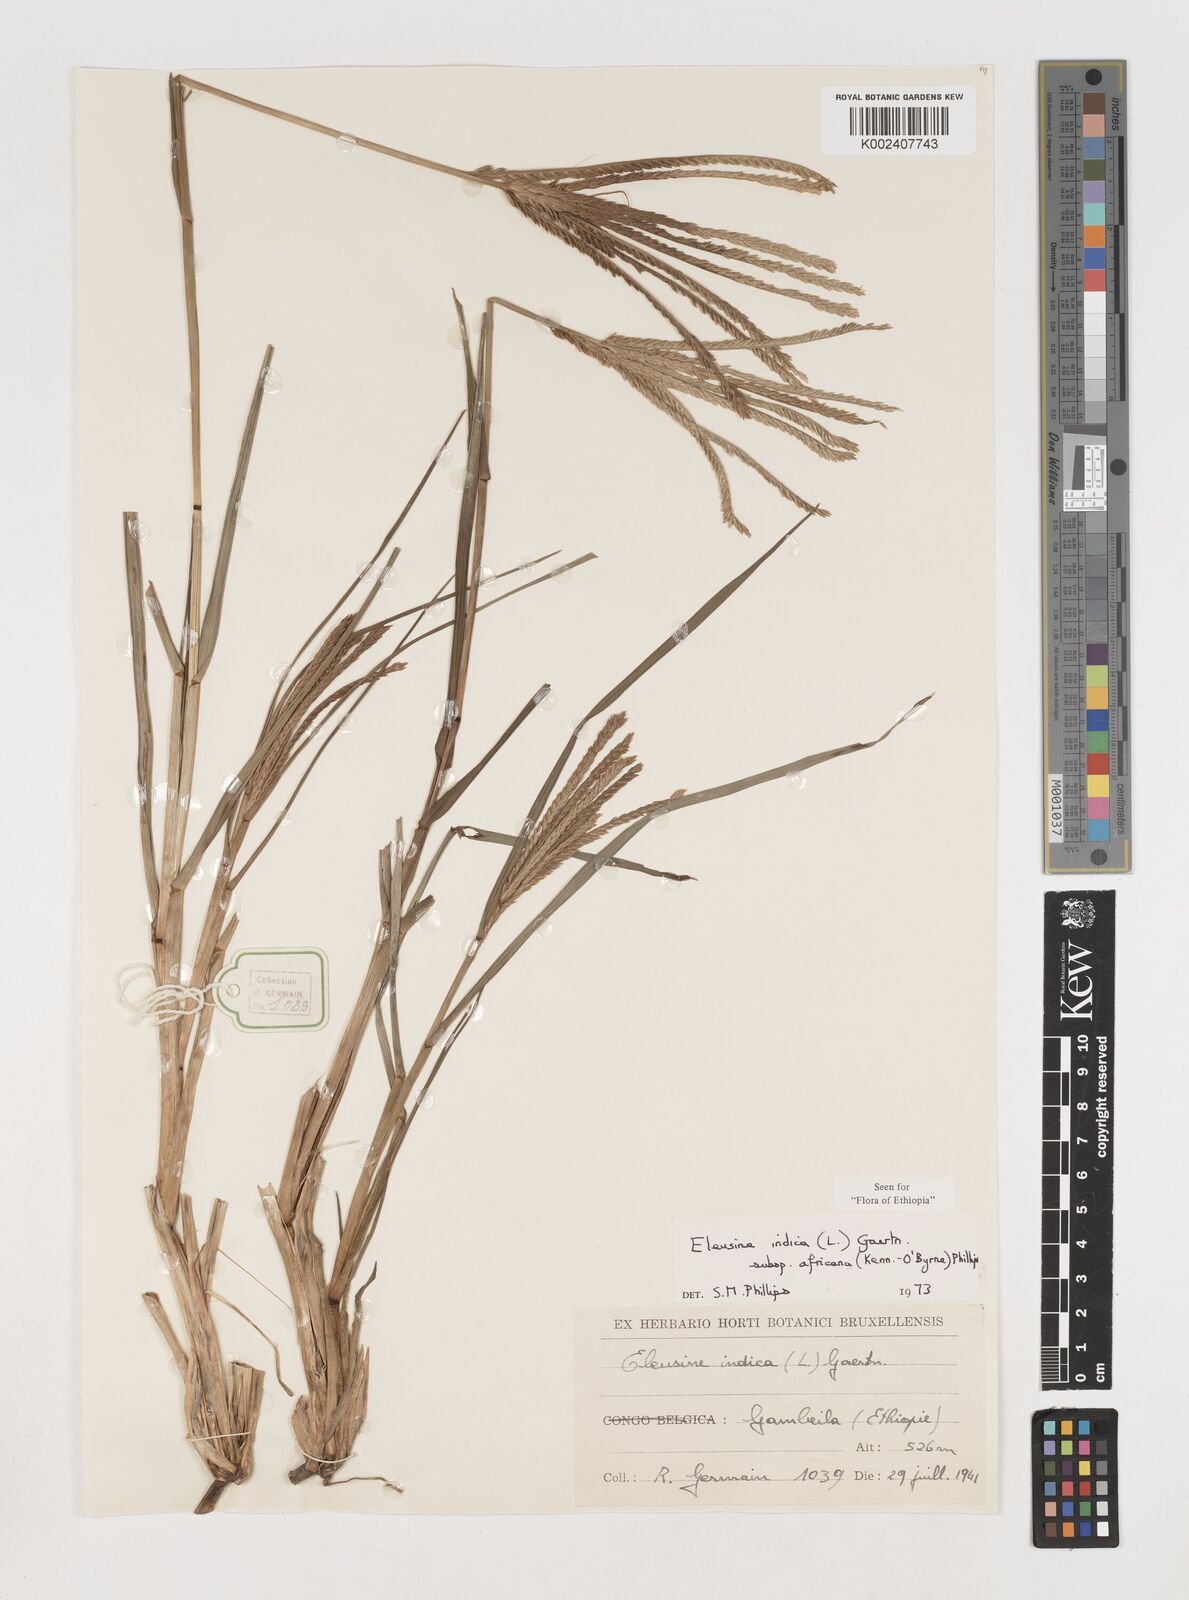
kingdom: Plantae
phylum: Tracheophyta
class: Liliopsida
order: Poales
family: Poaceae
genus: Eleusine
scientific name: Eleusine africana
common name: Wild african finger millet
